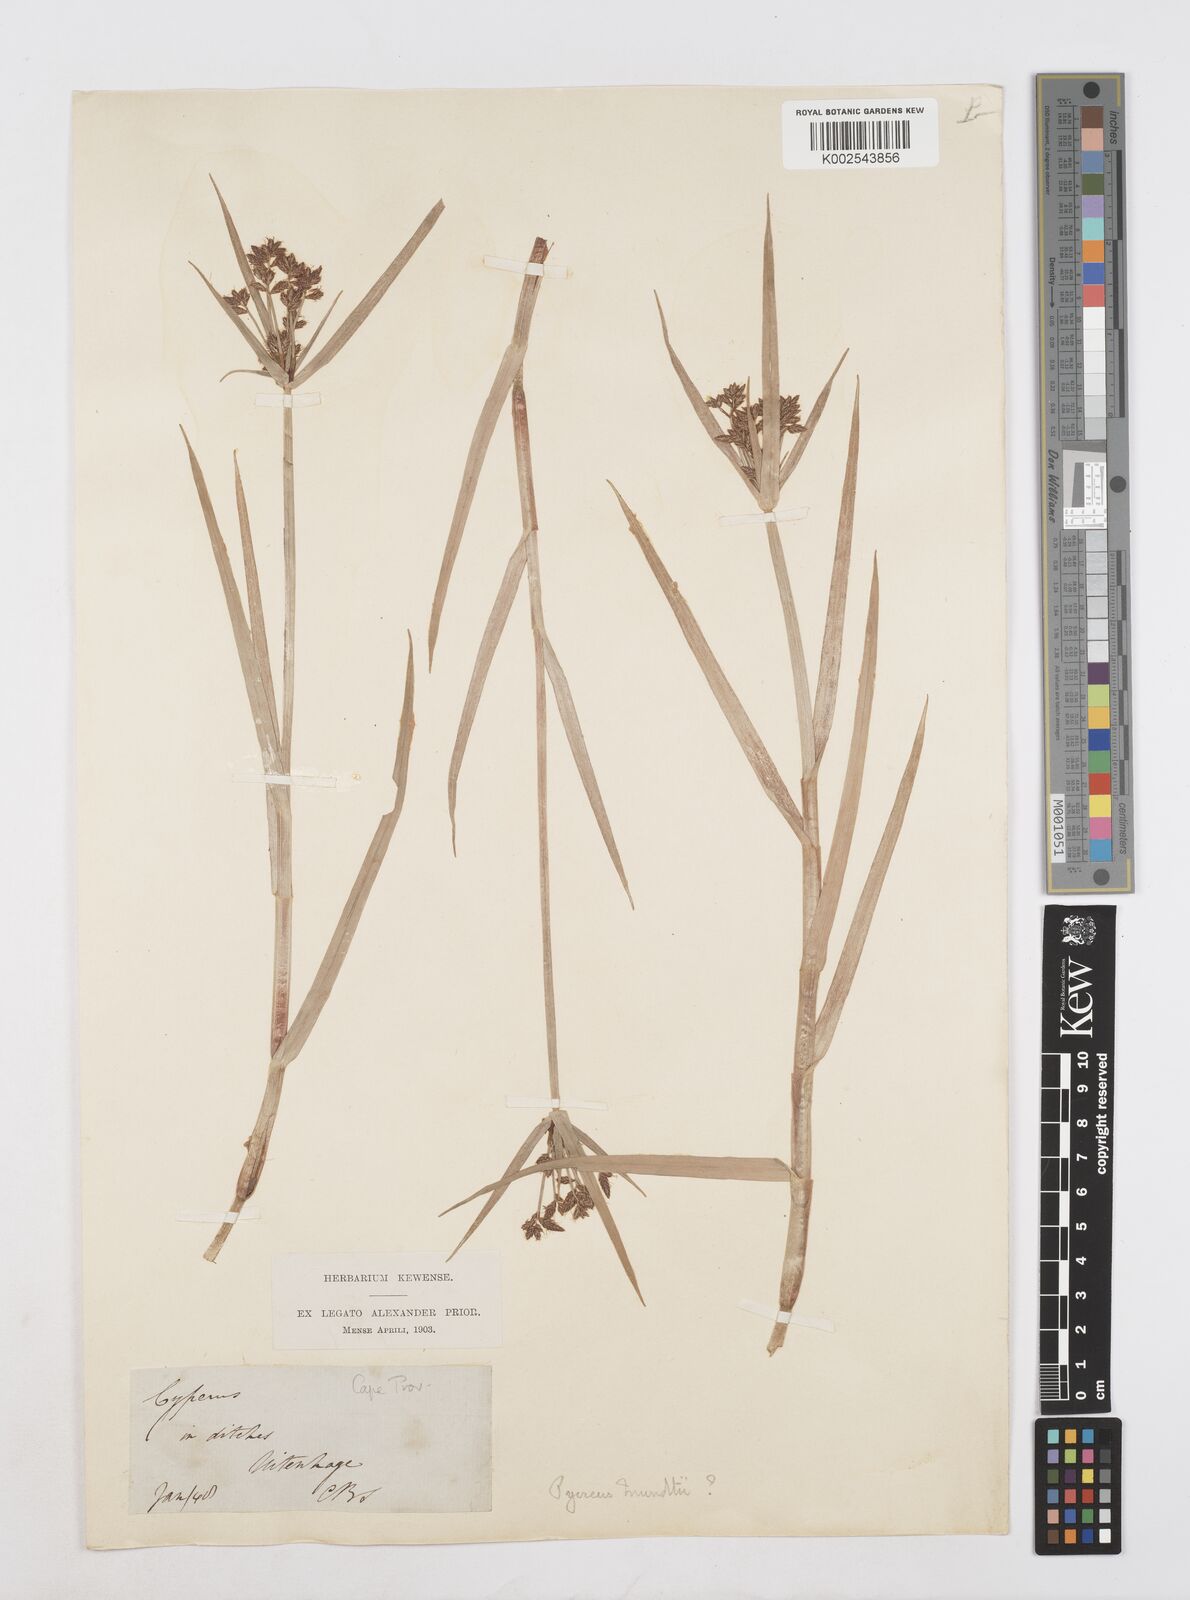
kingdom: Plantae
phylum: Tracheophyta
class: Liliopsida
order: Poales
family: Cyperaceae
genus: Cyperus
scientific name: Cyperus mundii
